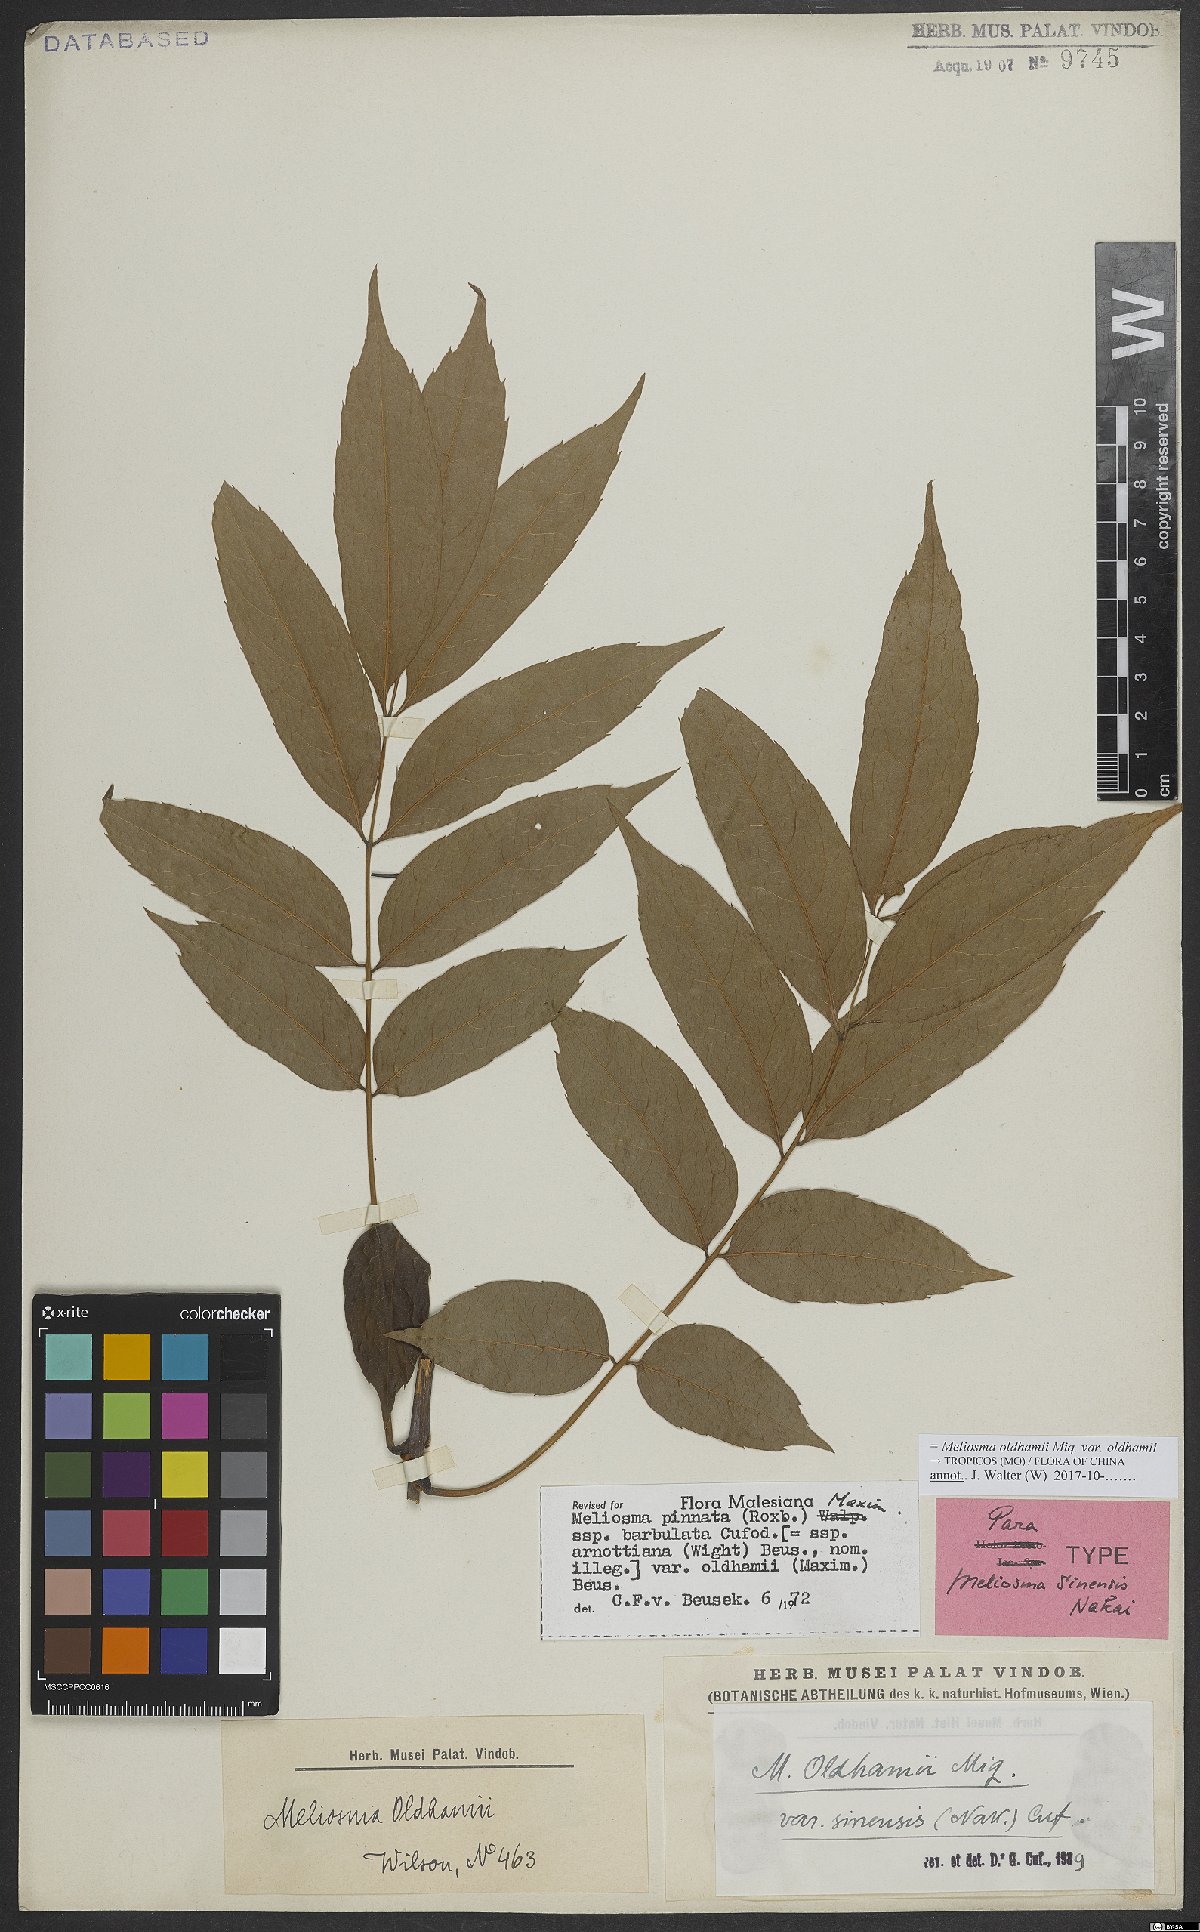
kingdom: Plantae
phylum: Tracheophyta
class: Magnoliopsida
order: Proteales
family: Sabiaceae
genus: Meliosma
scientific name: Meliosma oldhamii
